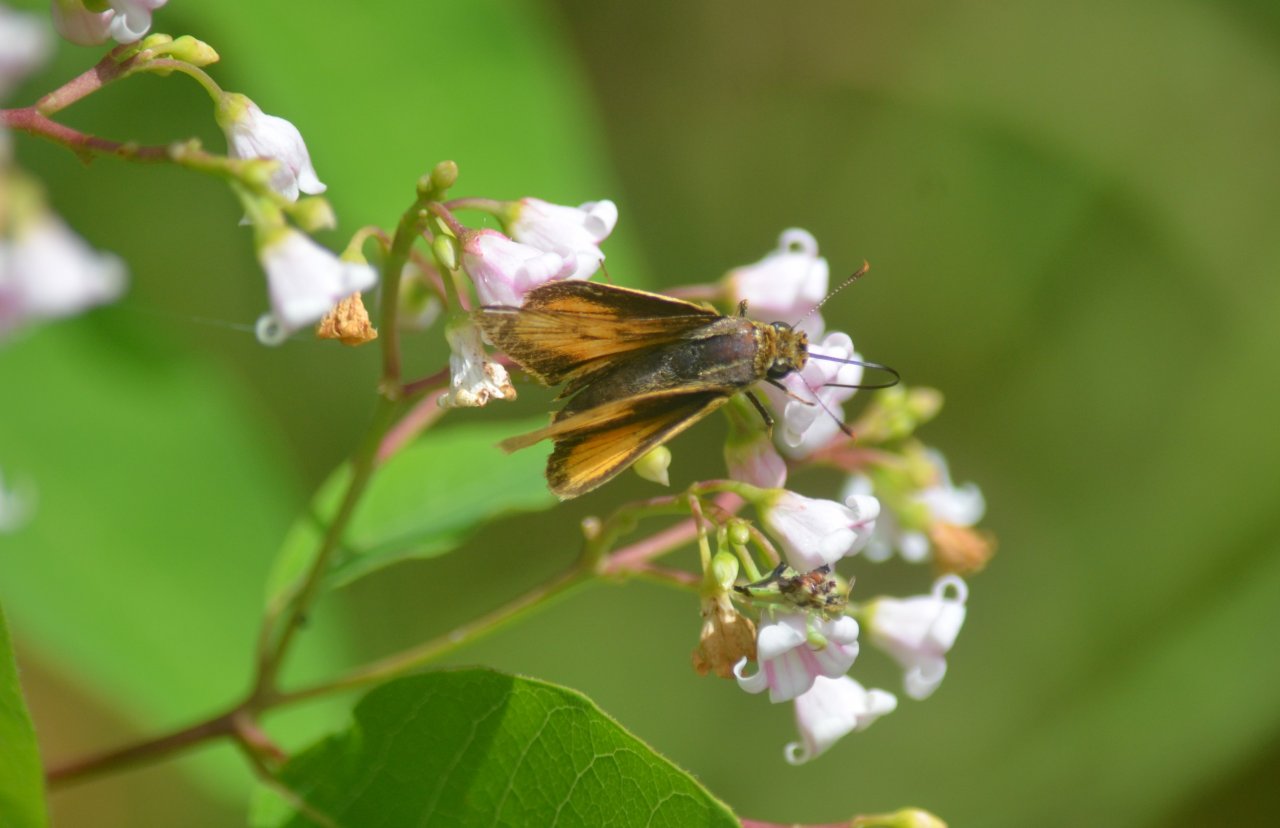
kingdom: Animalia
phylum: Arthropoda
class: Insecta
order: Lepidoptera
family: Hesperiidae
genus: Atrytone
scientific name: Atrytone delaware
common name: Delaware Skipper
